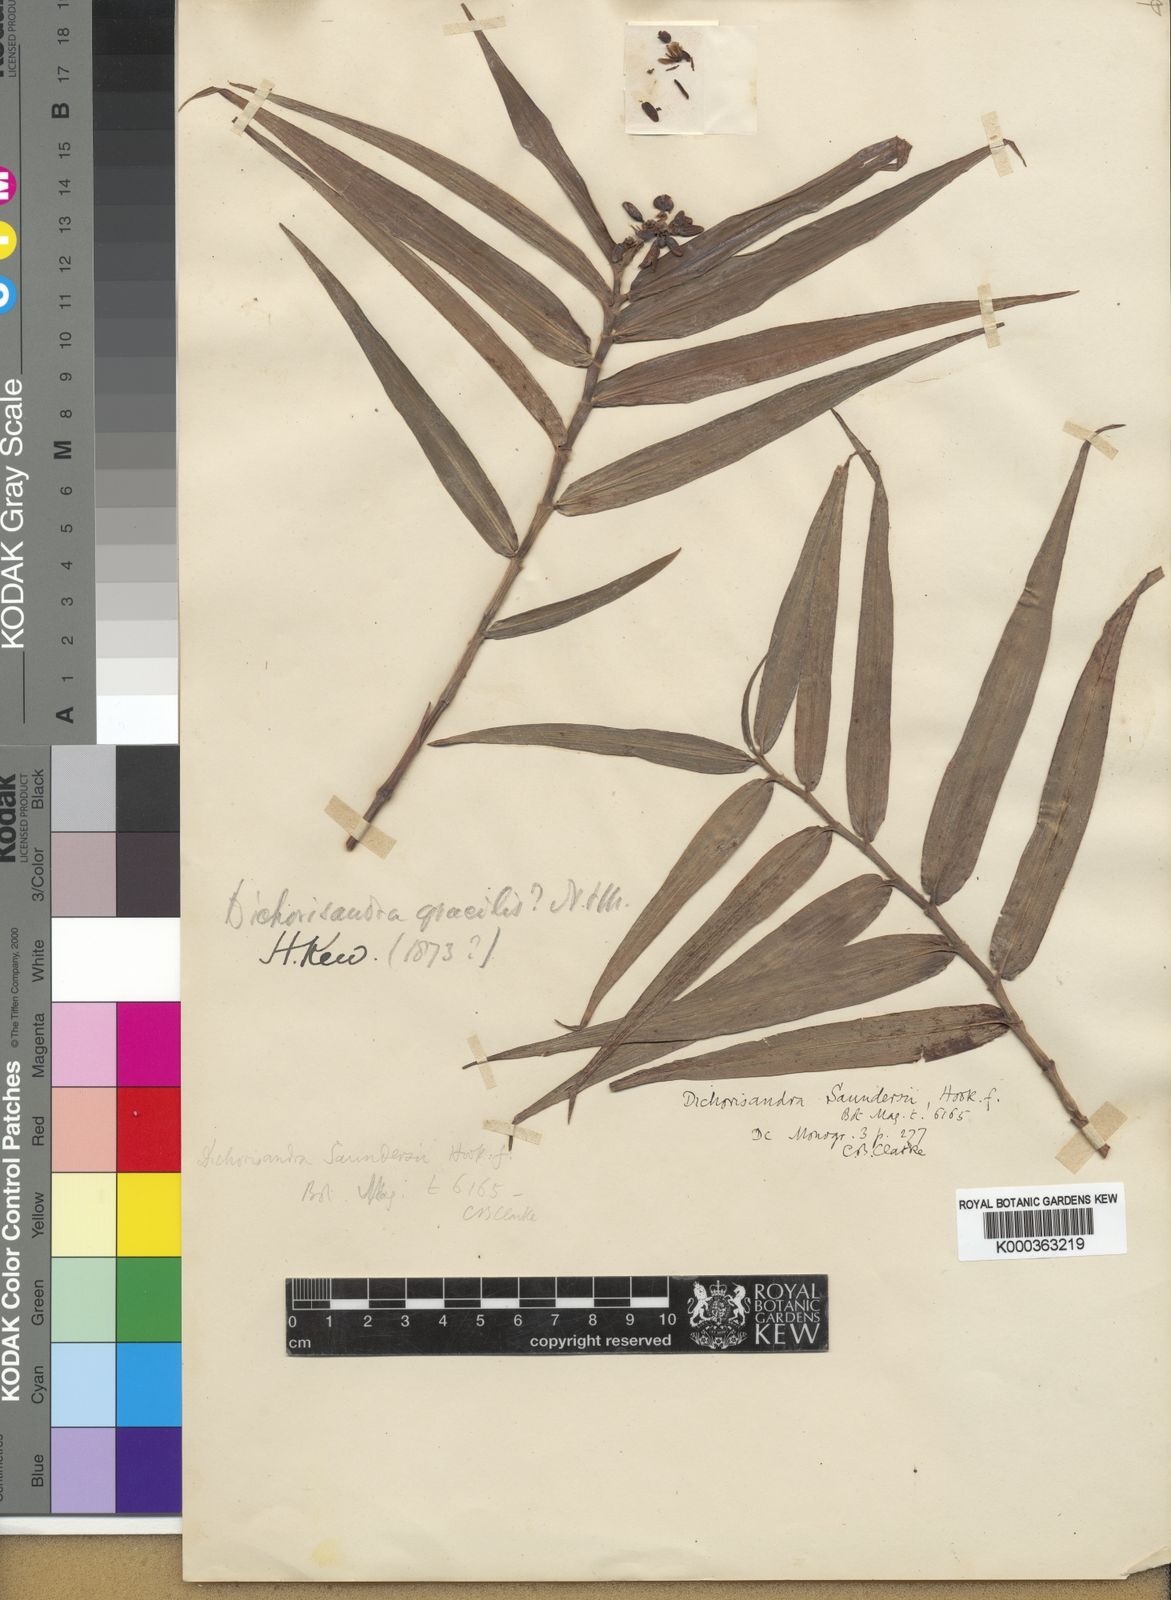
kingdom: Plantae
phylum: Tracheophyta
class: Liliopsida
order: Commelinales
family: Commelinaceae
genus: Dichorisandra
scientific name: Dichorisandra pubescens
